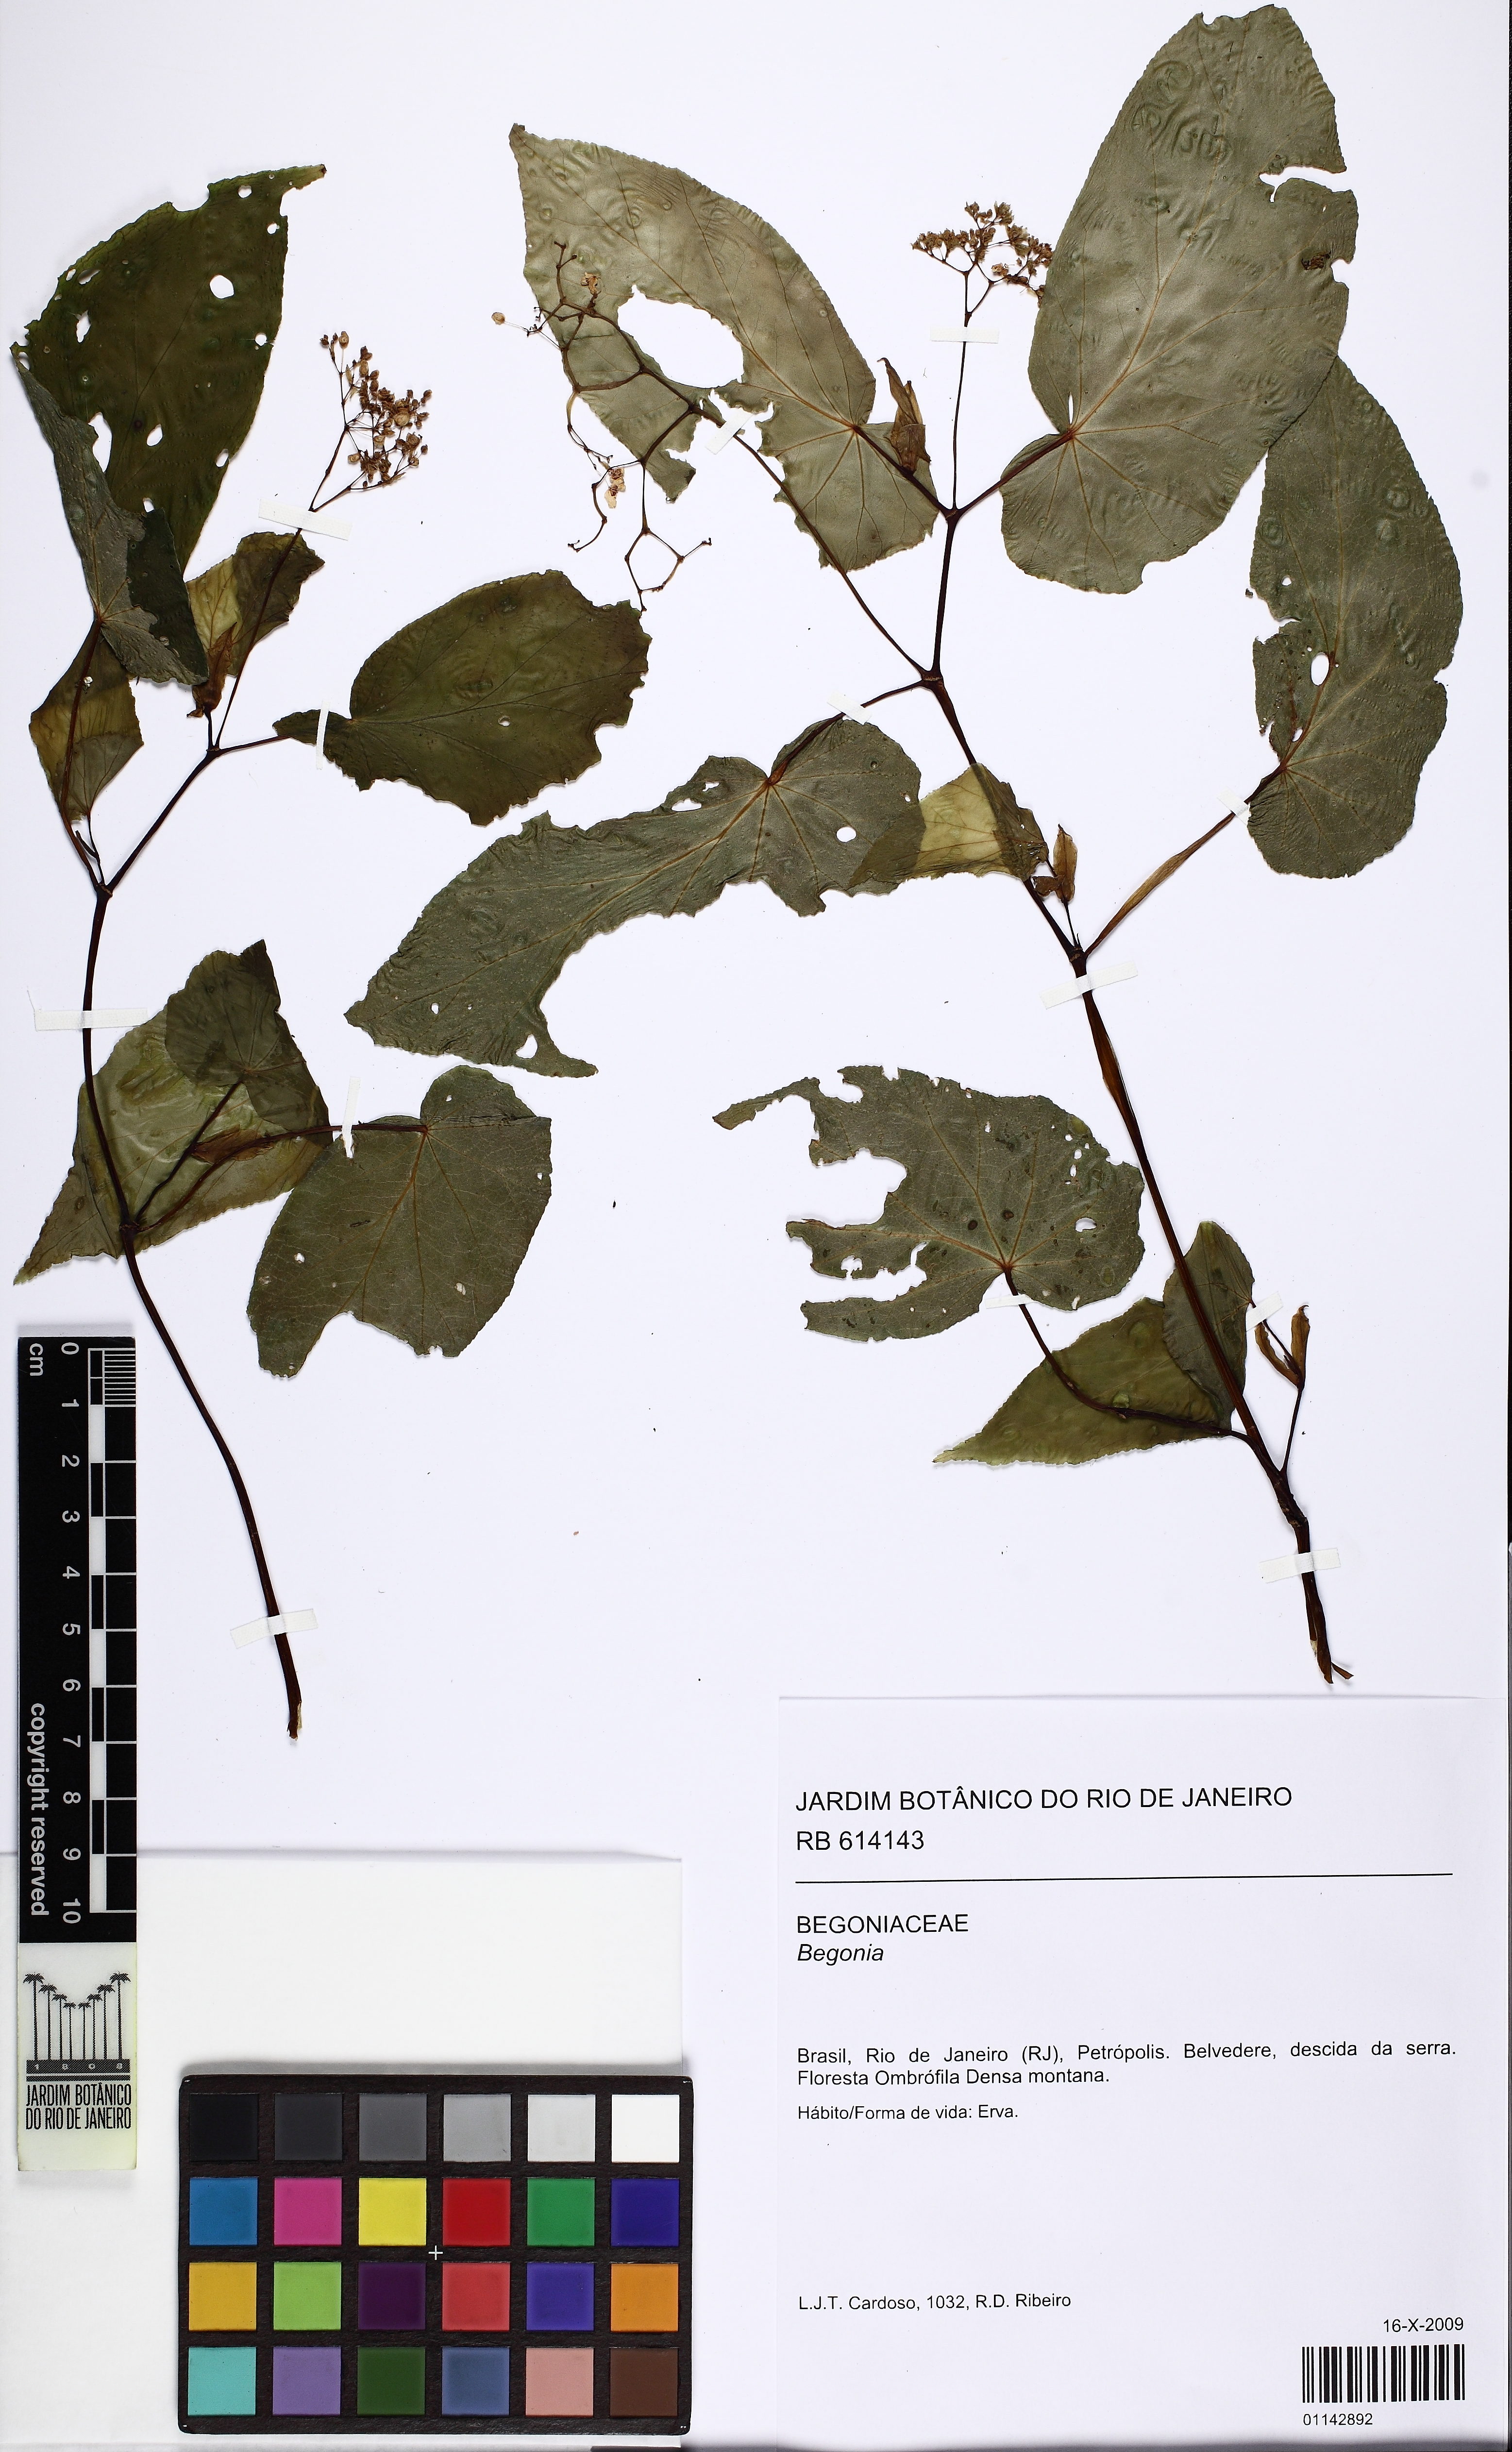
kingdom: Plantae
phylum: Tracheophyta
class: Magnoliopsida
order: Cucurbitales
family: Begoniaceae
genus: Begonia
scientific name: Begonia dietrichiana
